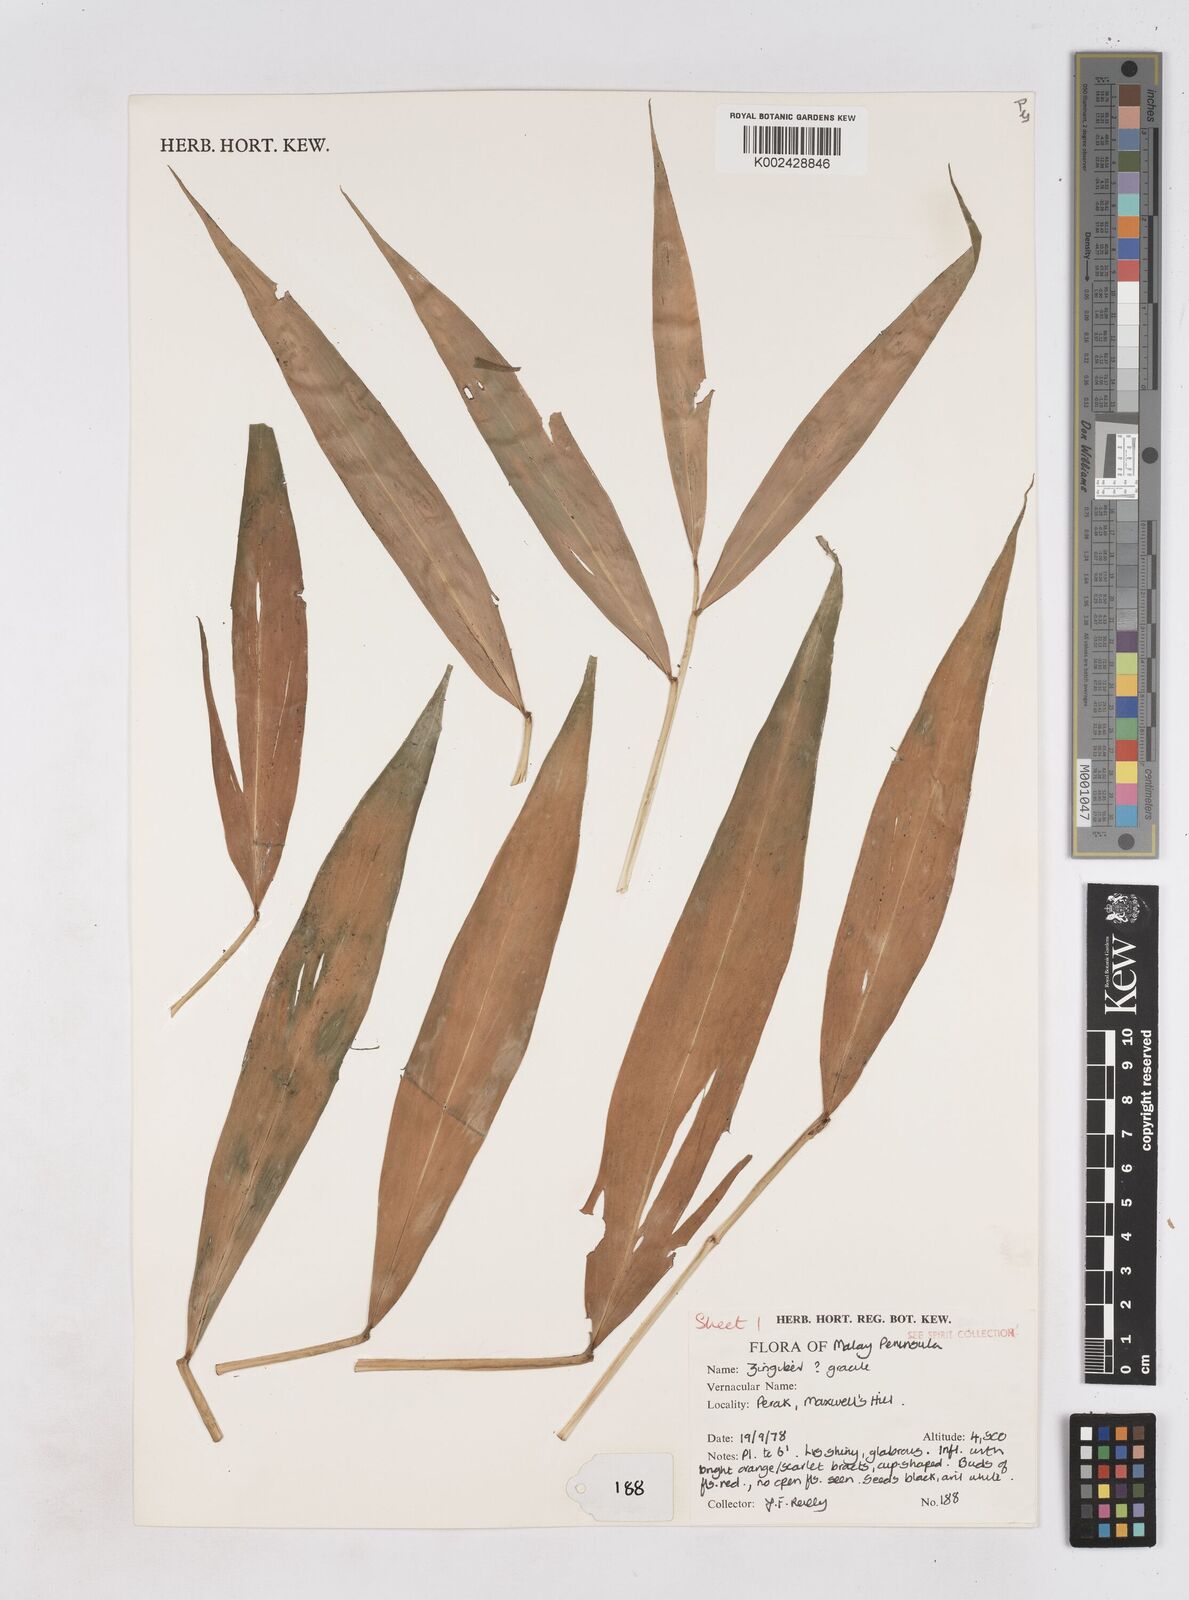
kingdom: Plantae
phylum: Tracheophyta
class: Liliopsida
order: Zingiberales
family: Zingiberaceae
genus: Zingiber
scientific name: Zingiber gracile
